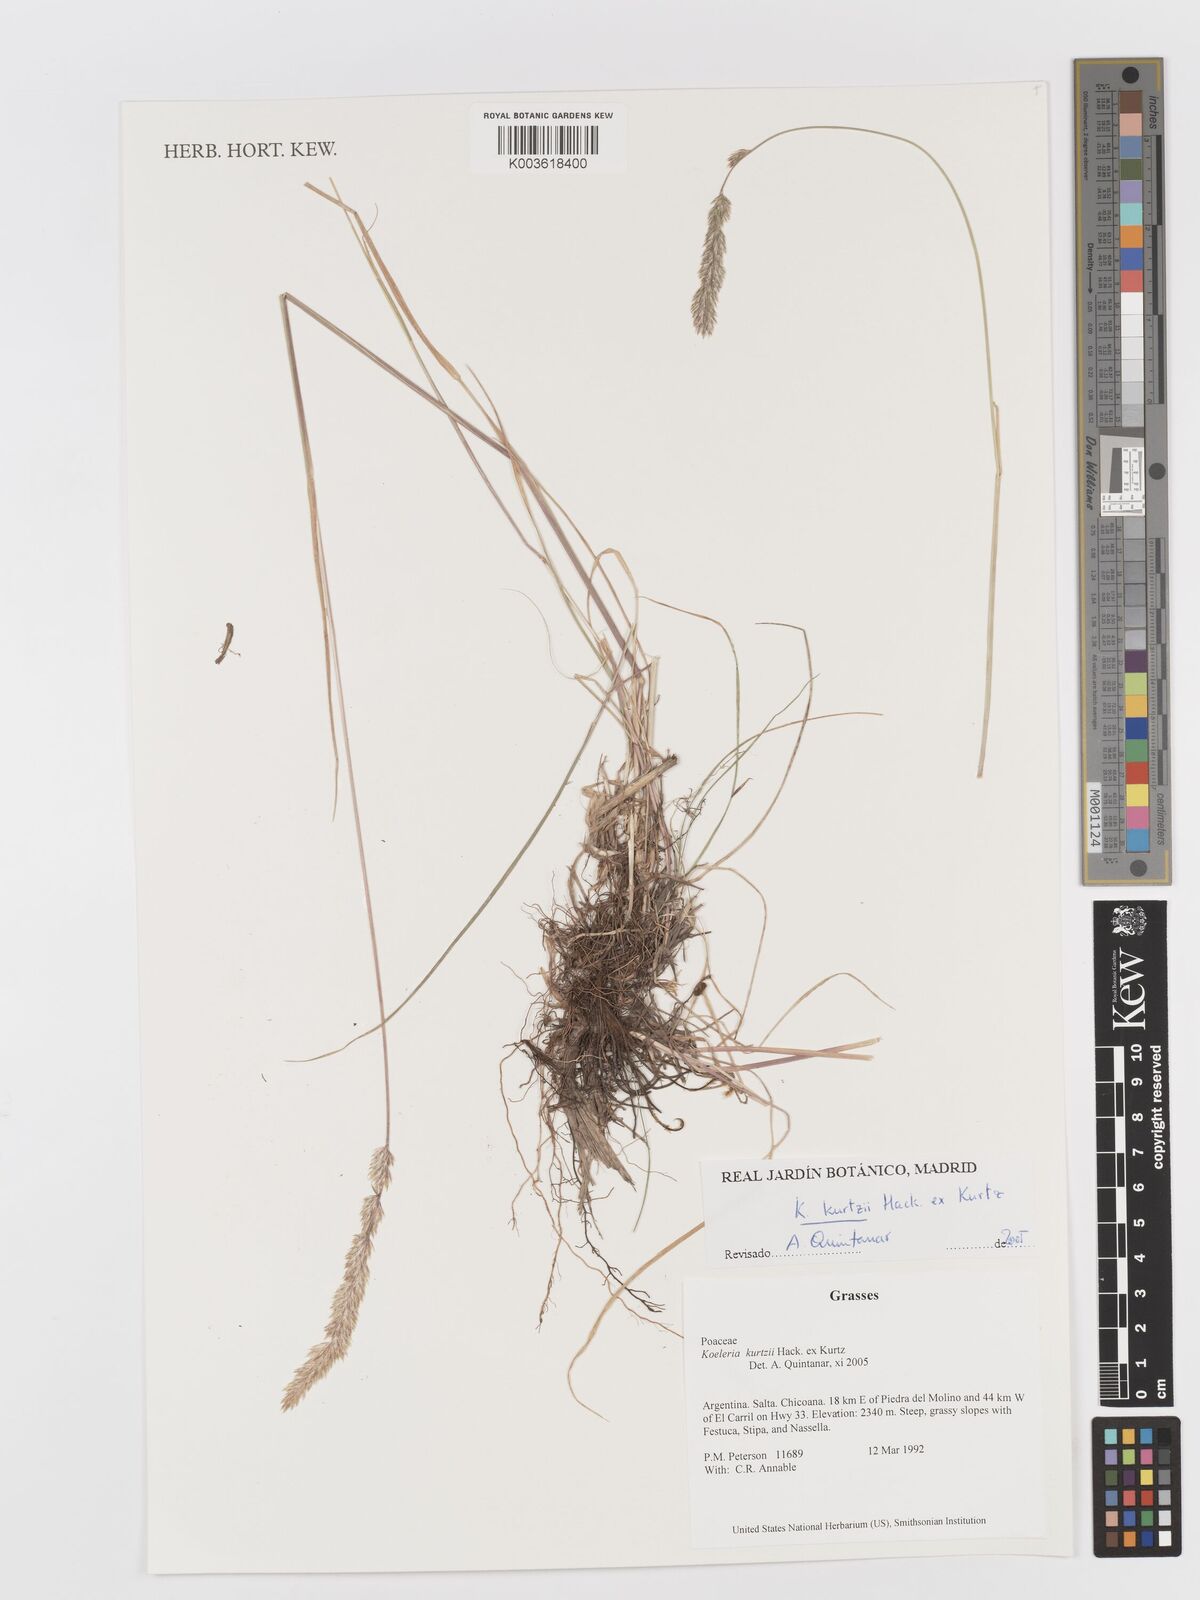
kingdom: Plantae
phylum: Tracheophyta
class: Liliopsida
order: Poales
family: Poaceae
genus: Koeleria
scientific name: Koeleria kurtzii
